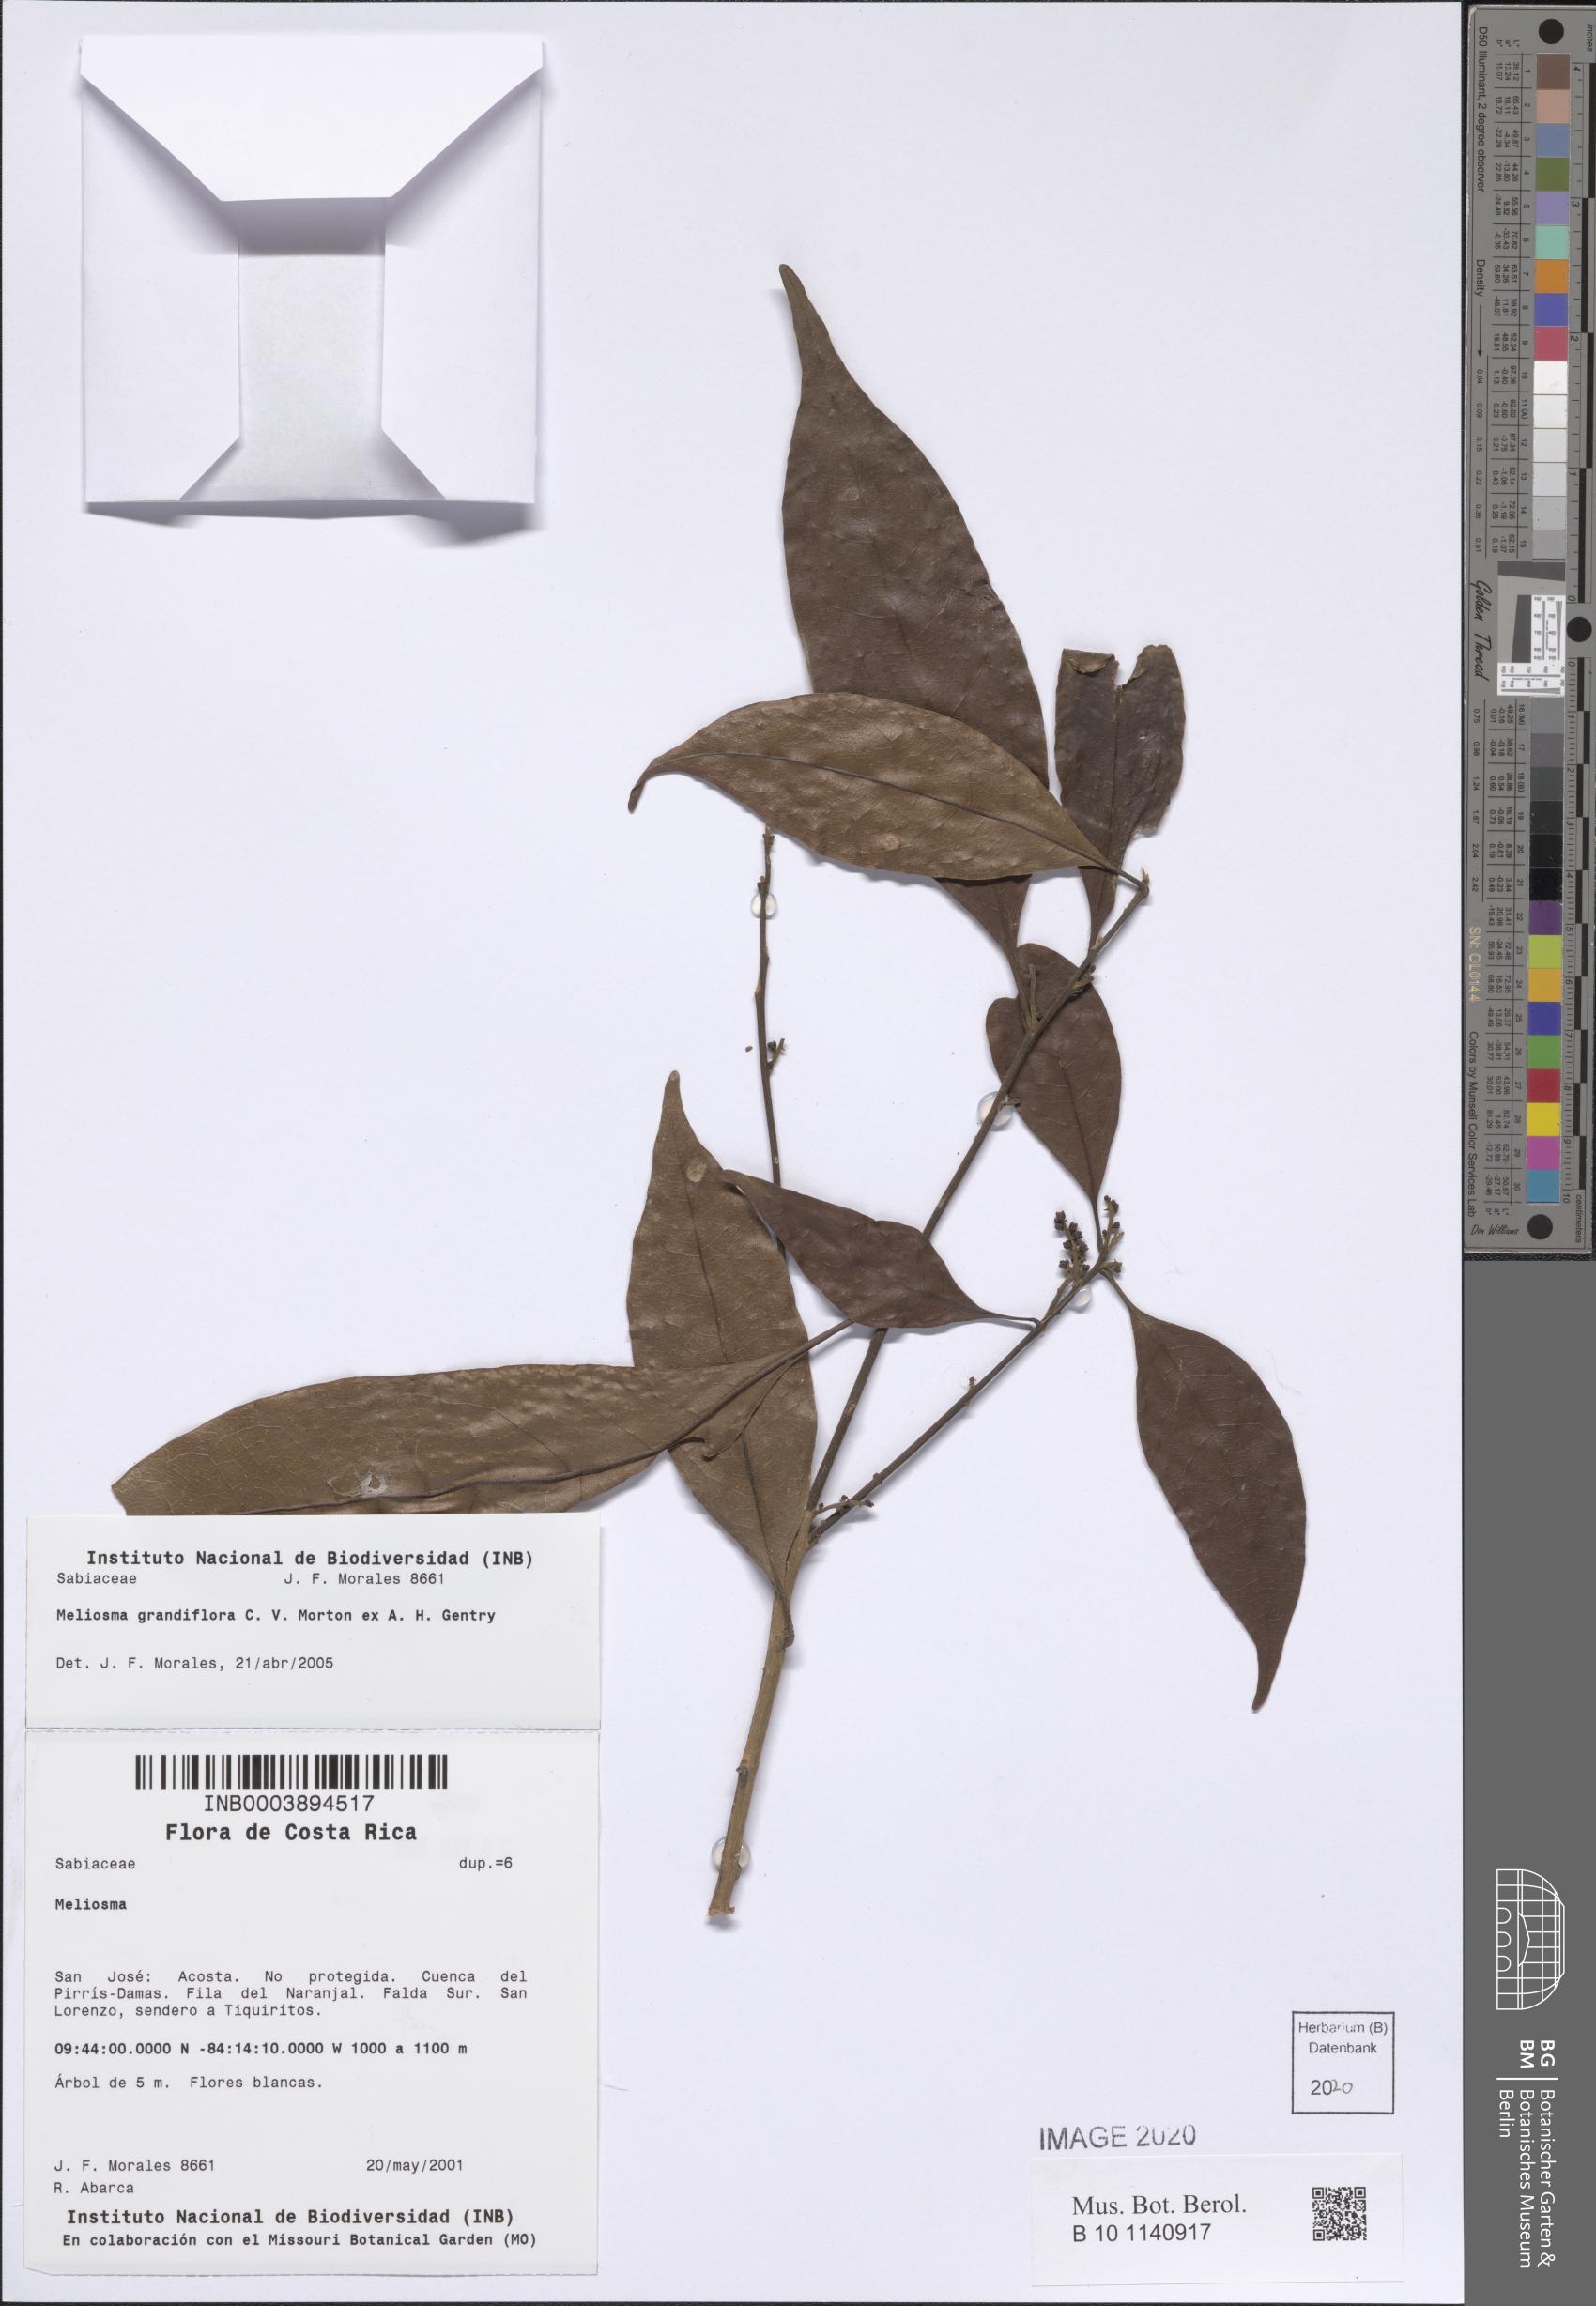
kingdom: Plantae
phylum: Tracheophyta
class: Magnoliopsida
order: Proteales
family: Sabiaceae
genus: Meliosma
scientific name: Meliosma grandifolia
